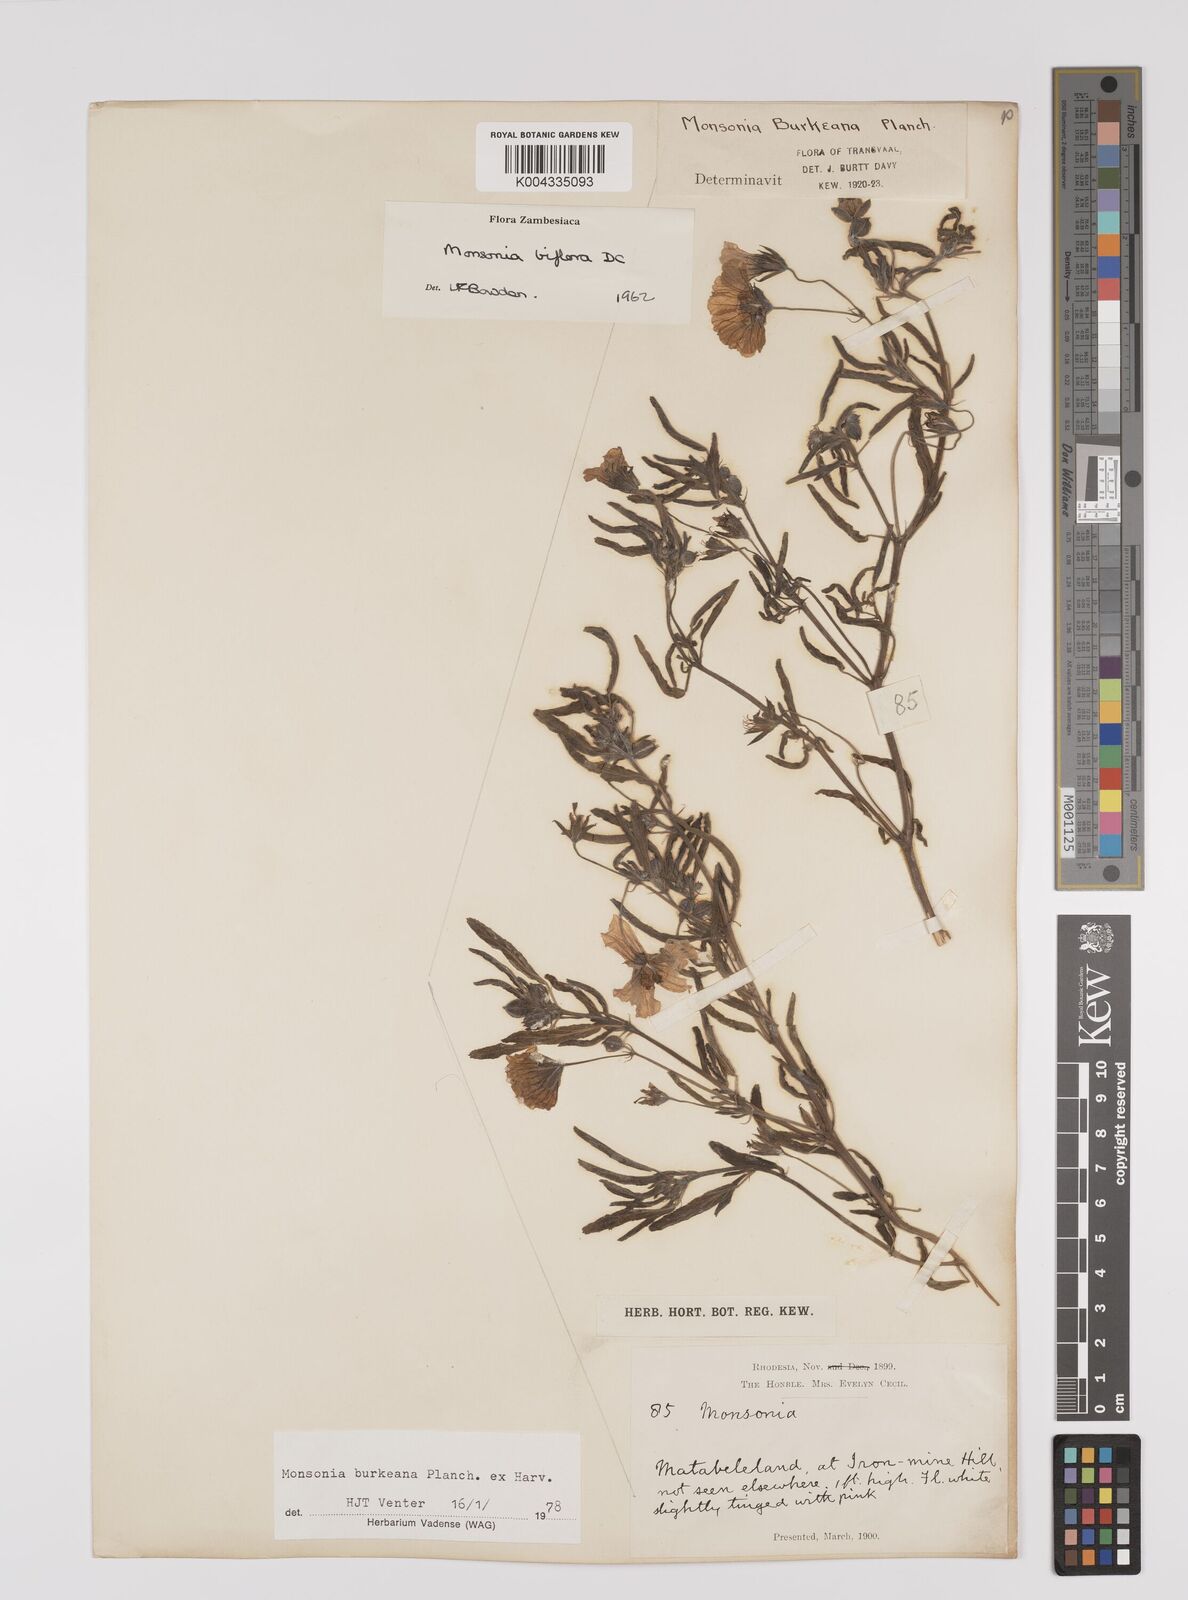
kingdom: Plantae
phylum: Tracheophyta
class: Magnoliopsida
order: Geraniales
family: Geraniaceae
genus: Monsonia
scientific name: Monsonia biflora
